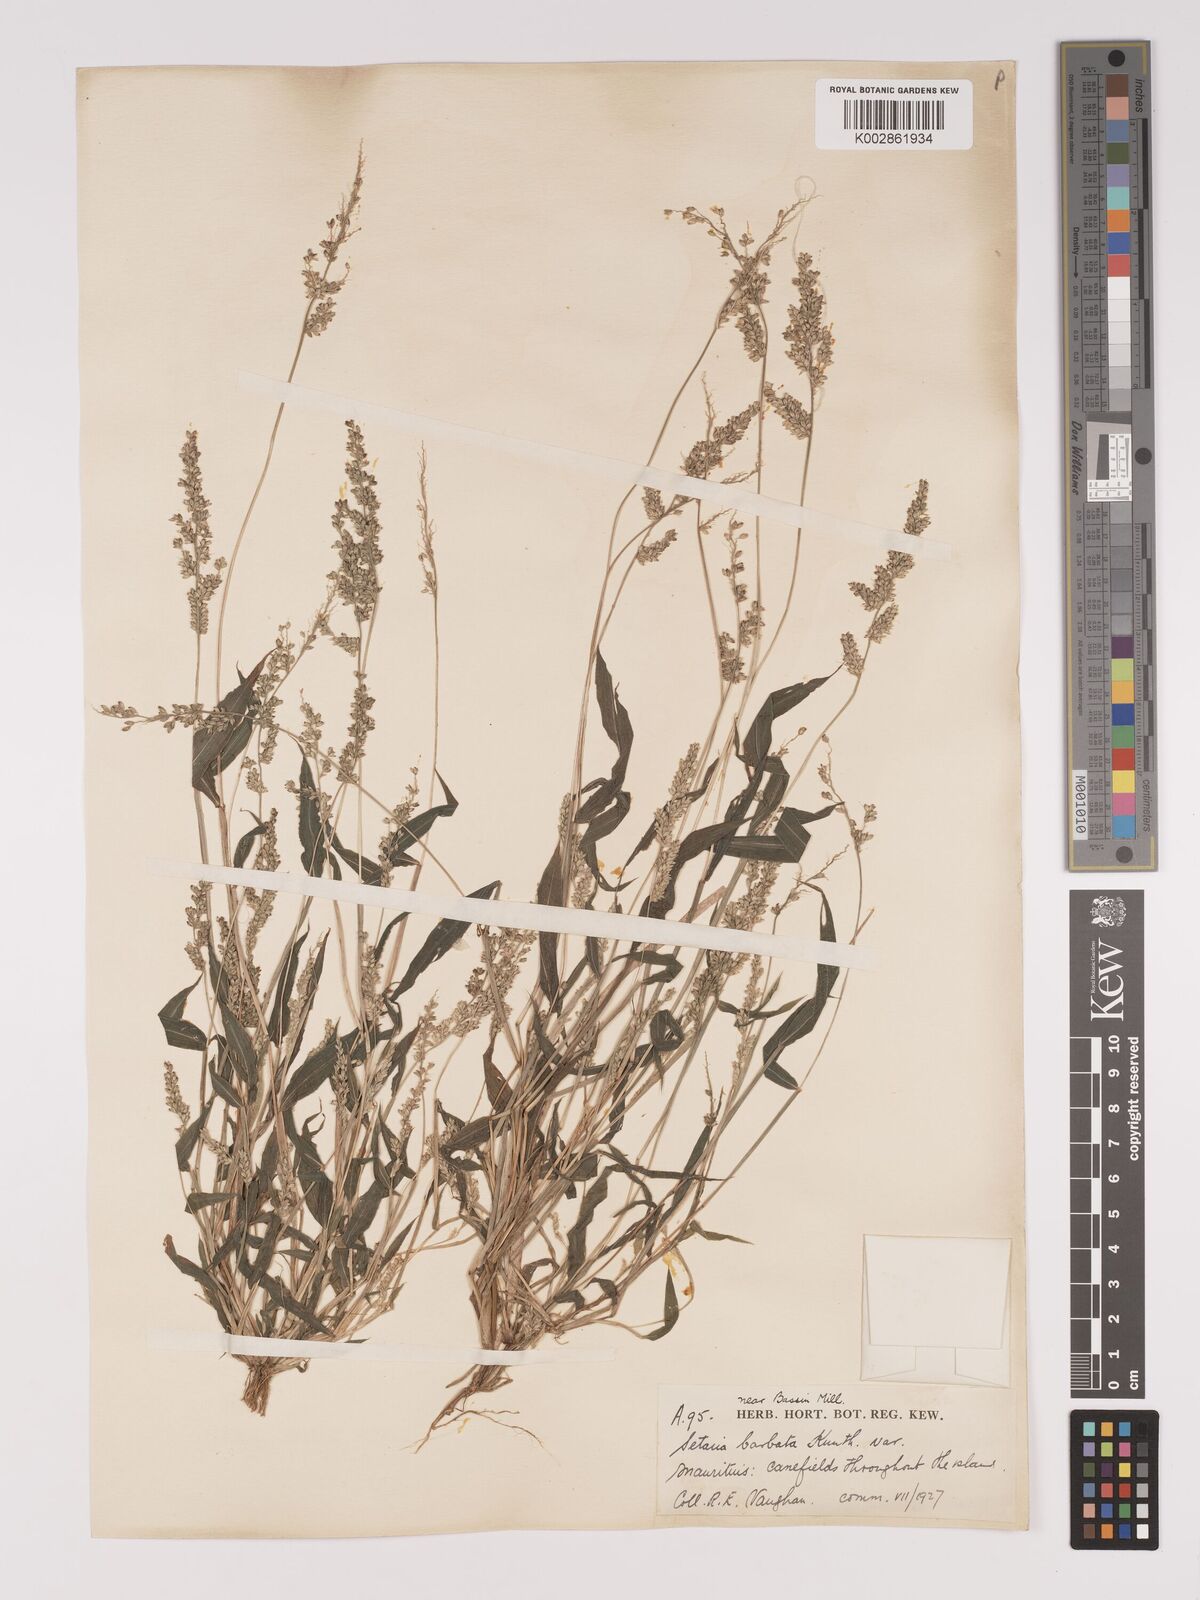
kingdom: Plantae
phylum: Tracheophyta
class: Liliopsida
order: Poales
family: Poaceae
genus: Setaria
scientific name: Setaria barbata
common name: East indian bristlegrass
